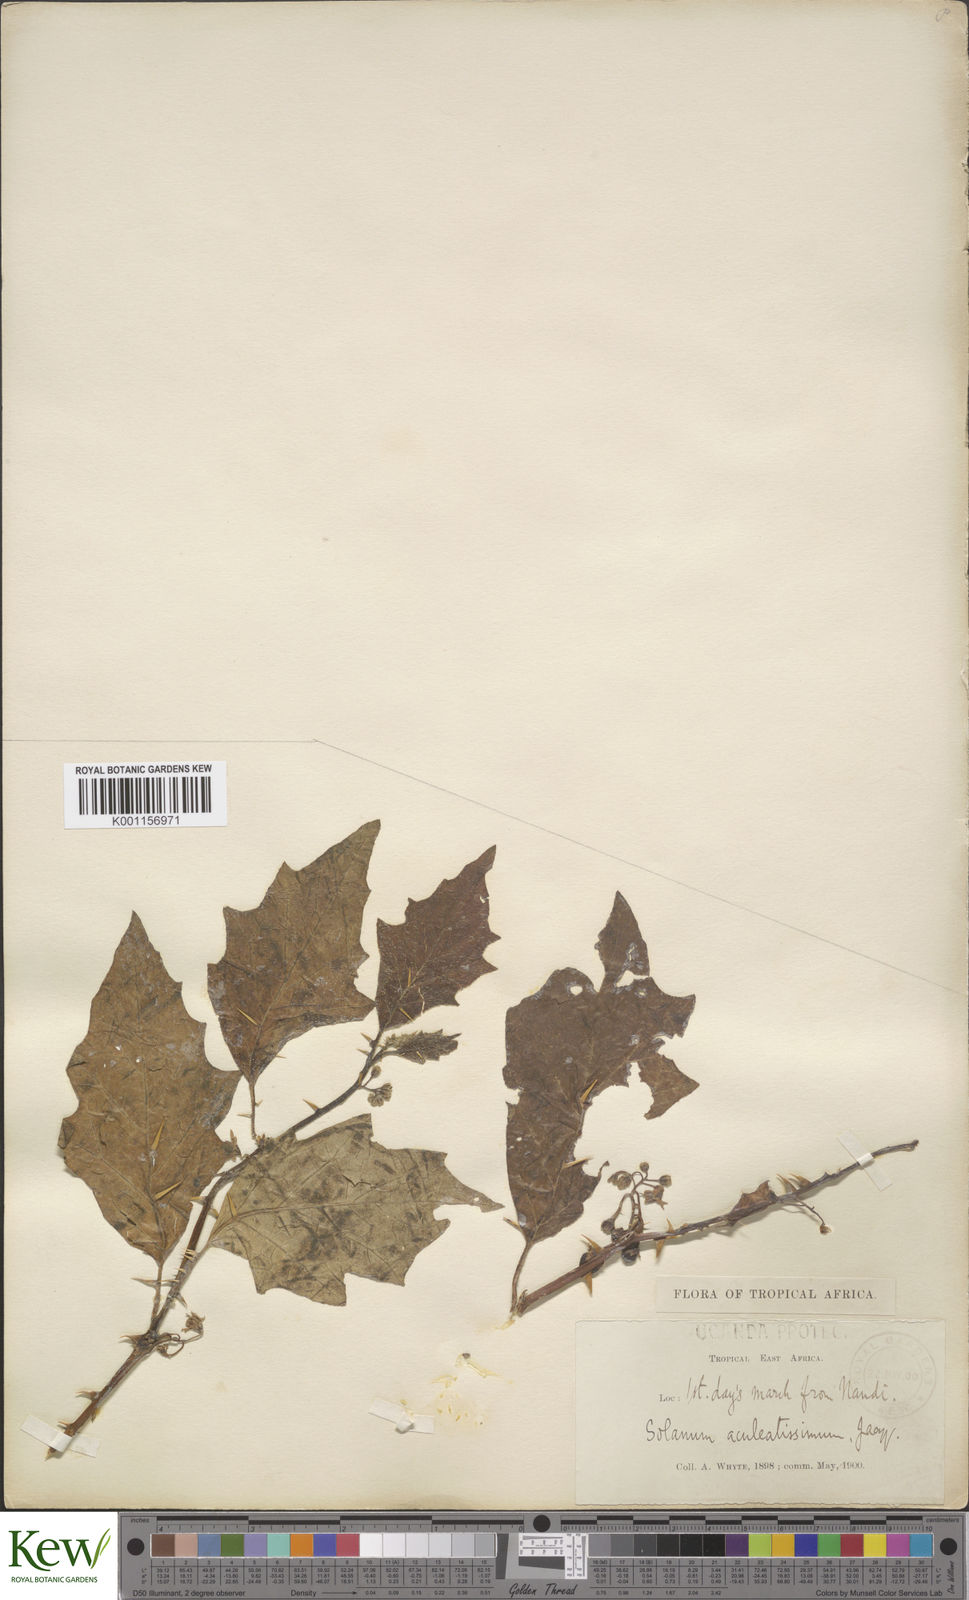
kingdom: Plantae
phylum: Tracheophyta
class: Magnoliopsida
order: Solanales
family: Solanaceae
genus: Solanum
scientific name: Solanum anguivi
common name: Forest bitterberry
